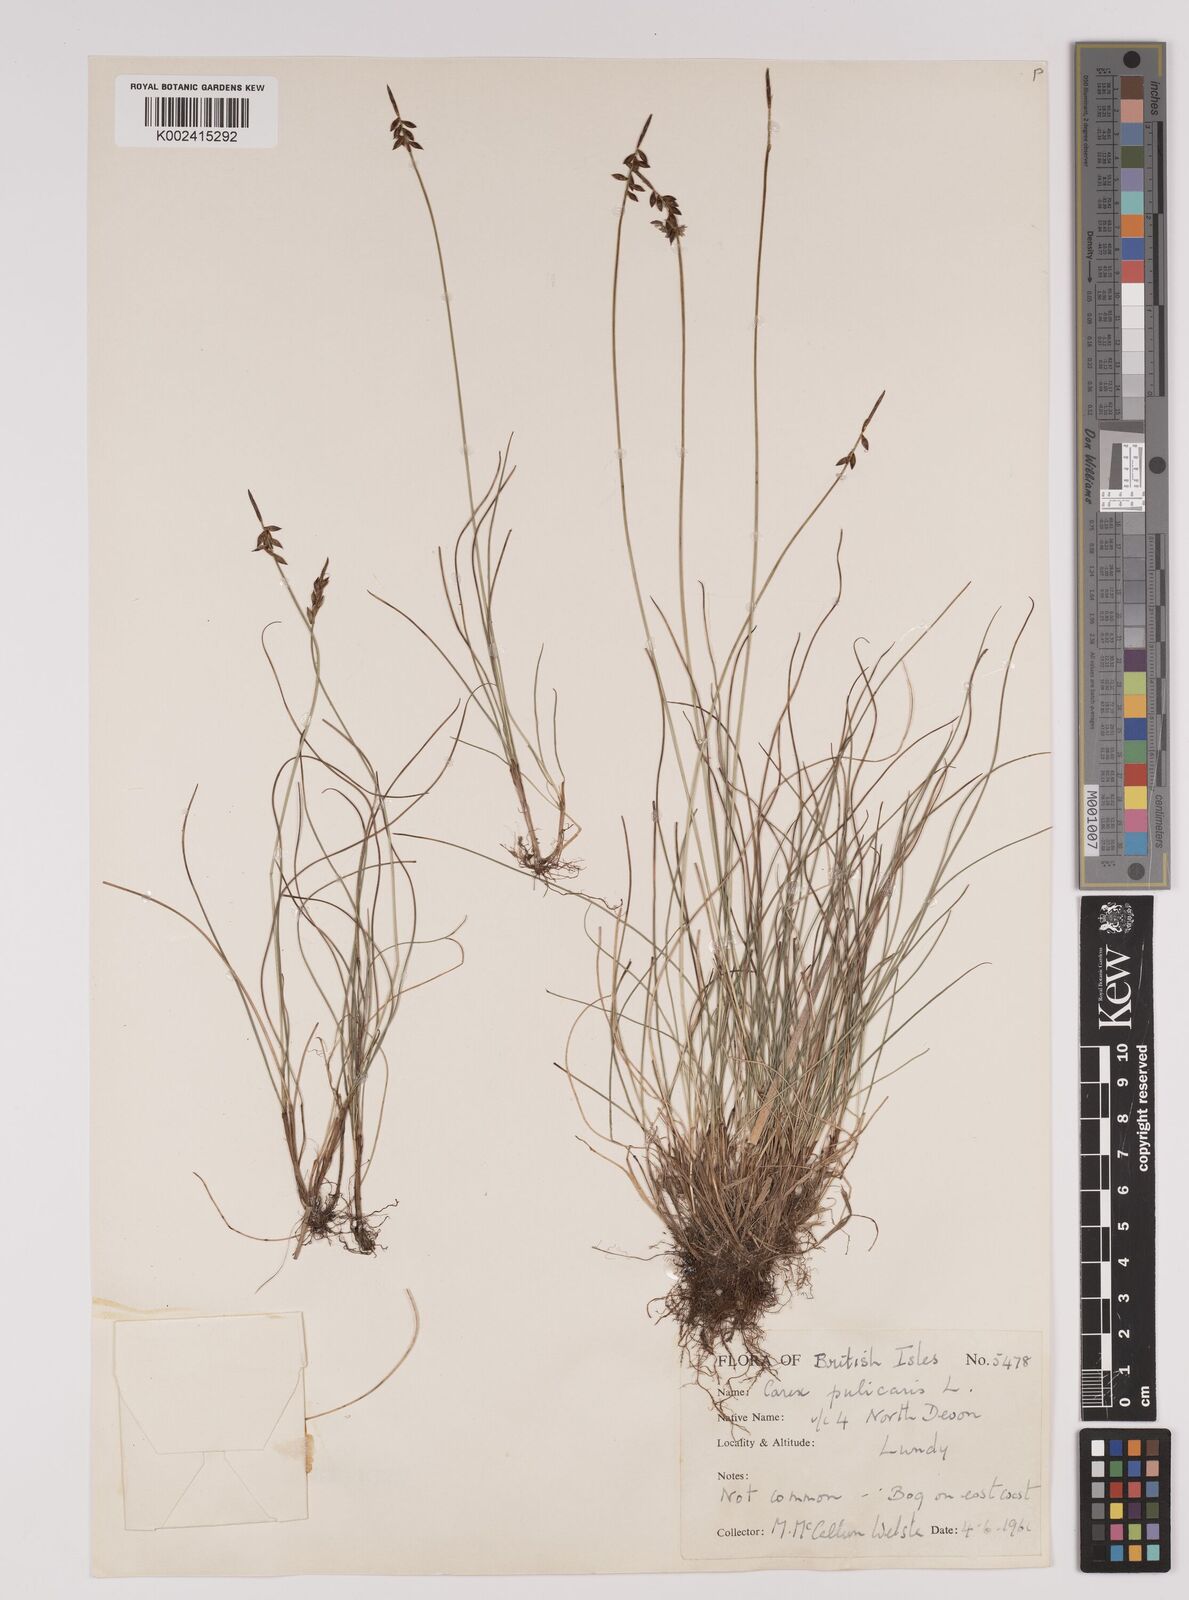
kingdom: Plantae
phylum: Tracheophyta
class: Liliopsida
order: Poales
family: Cyperaceae
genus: Carex
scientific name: Carex pulicaris
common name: Flea sedge
